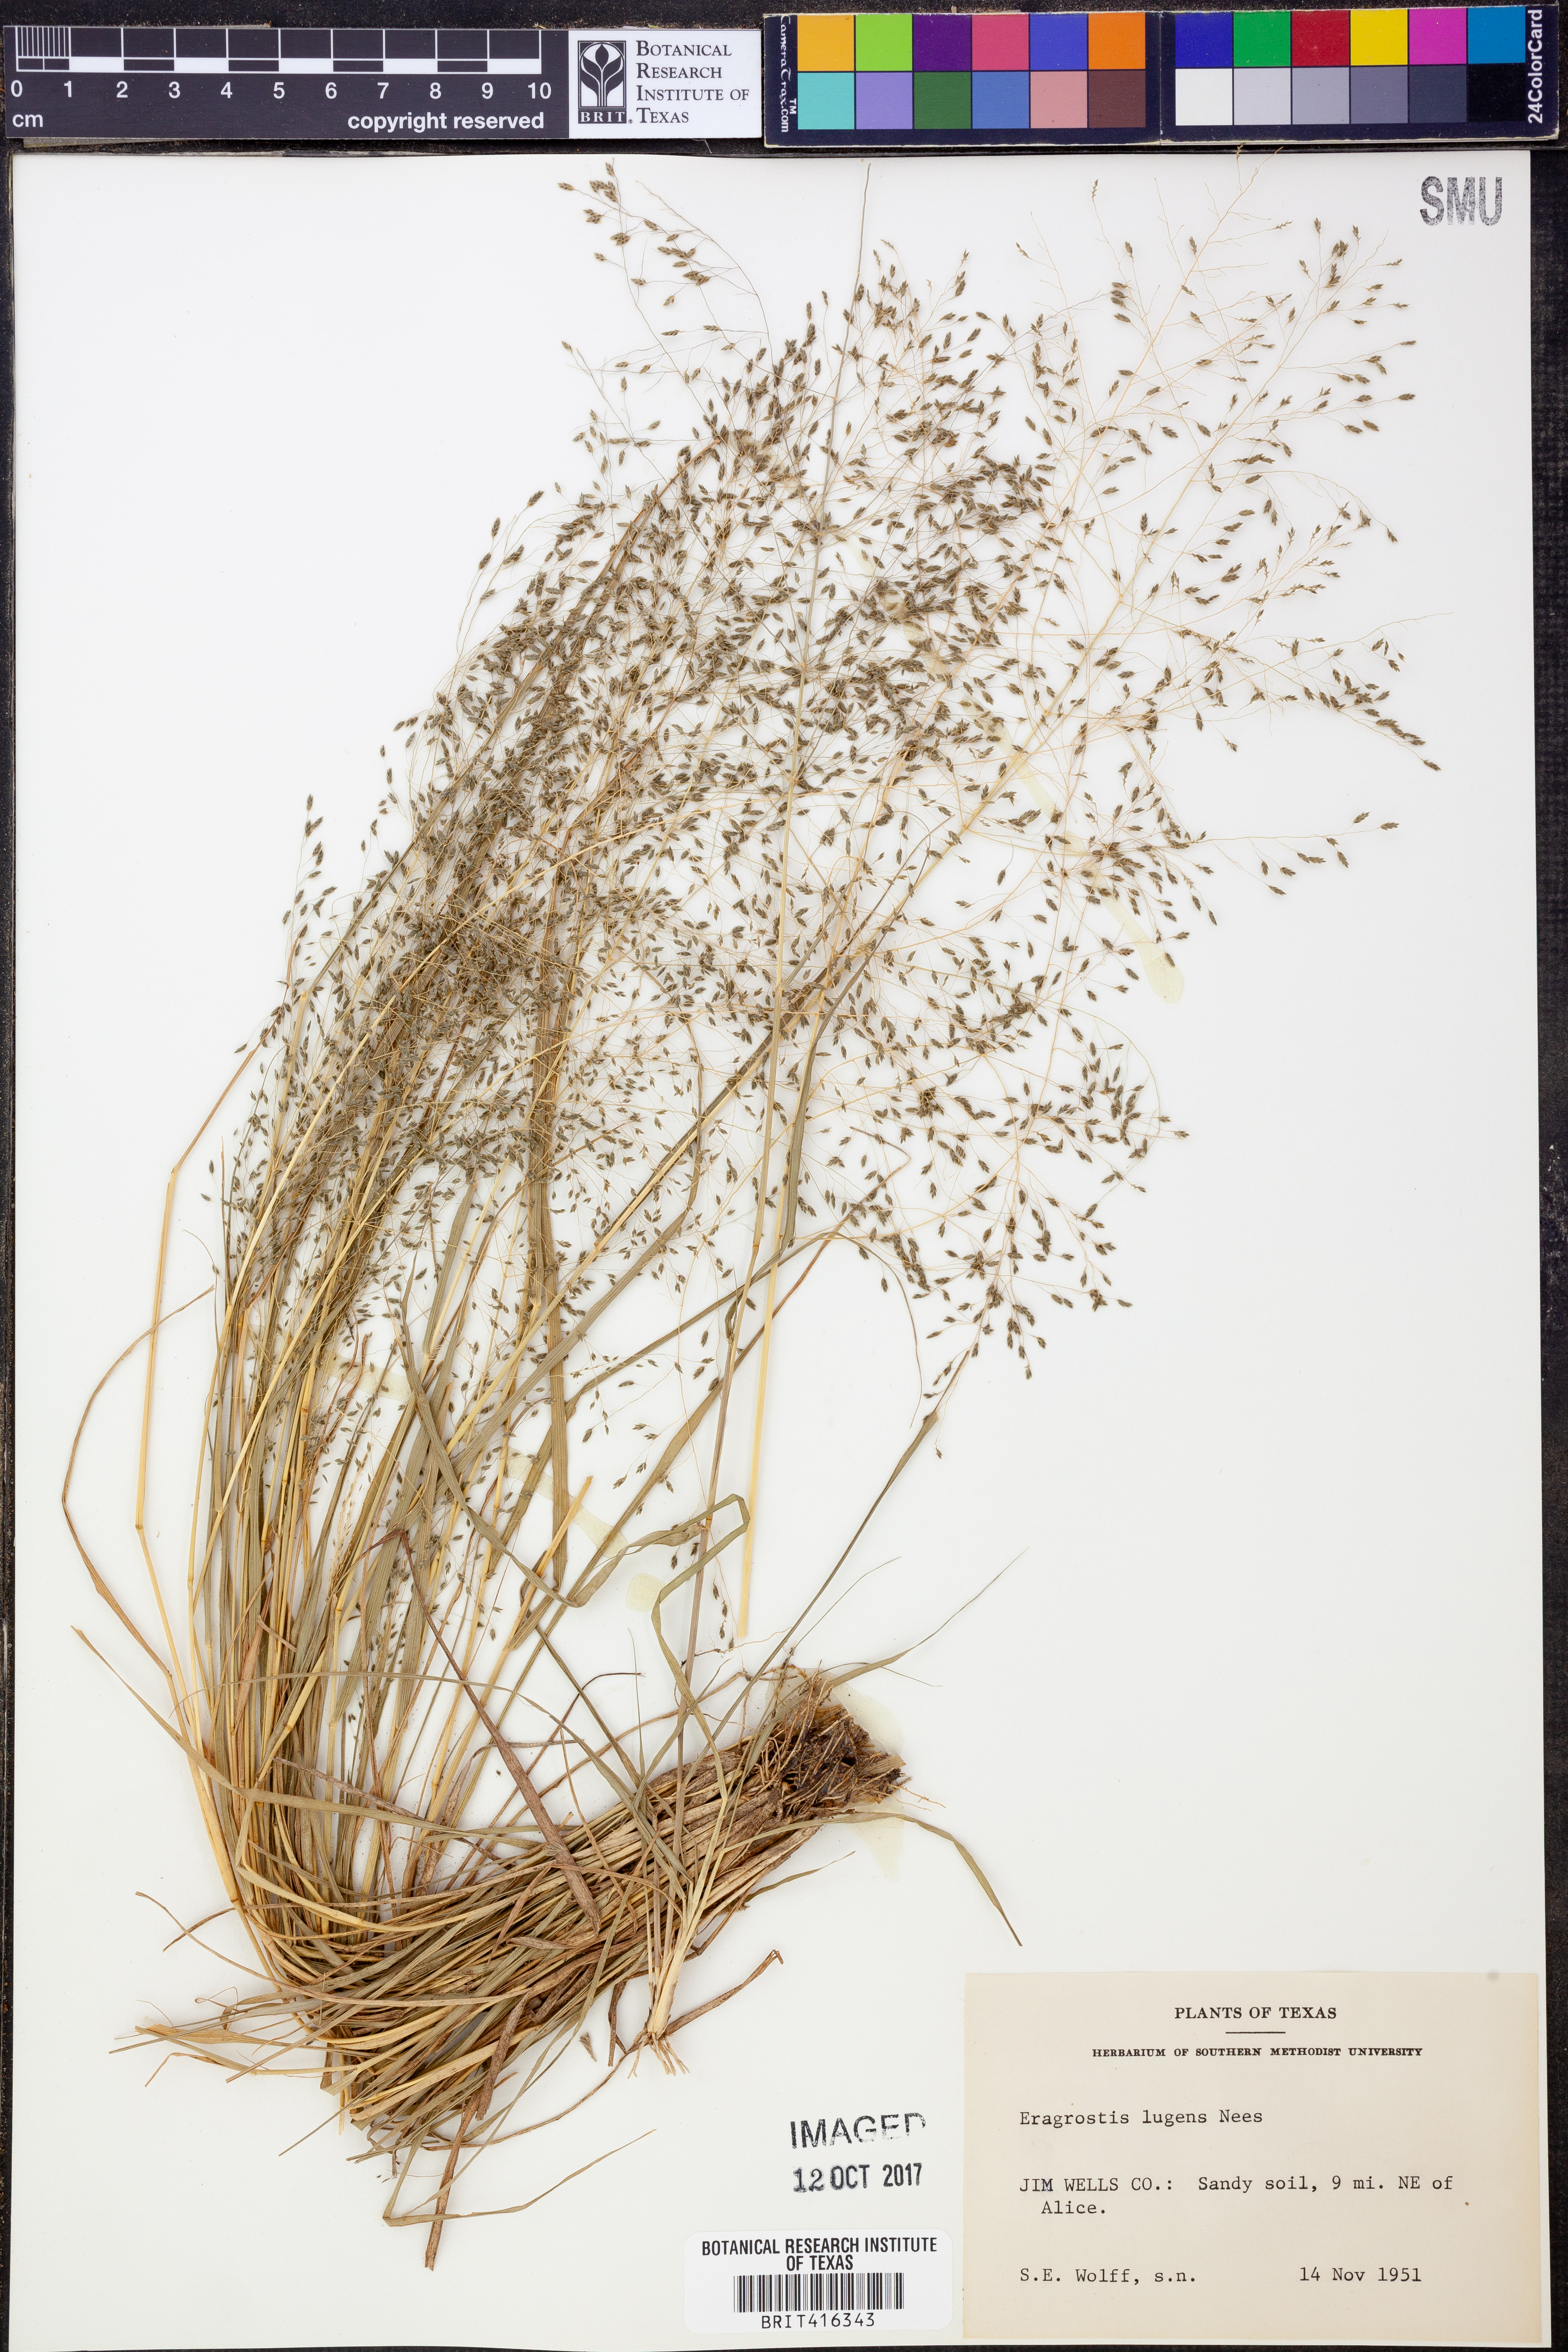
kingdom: Plantae
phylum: Tracheophyta
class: Liliopsida
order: Poales
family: Poaceae
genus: Eragrostis
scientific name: Eragrostis capillaris
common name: Hair-like lovegrass
